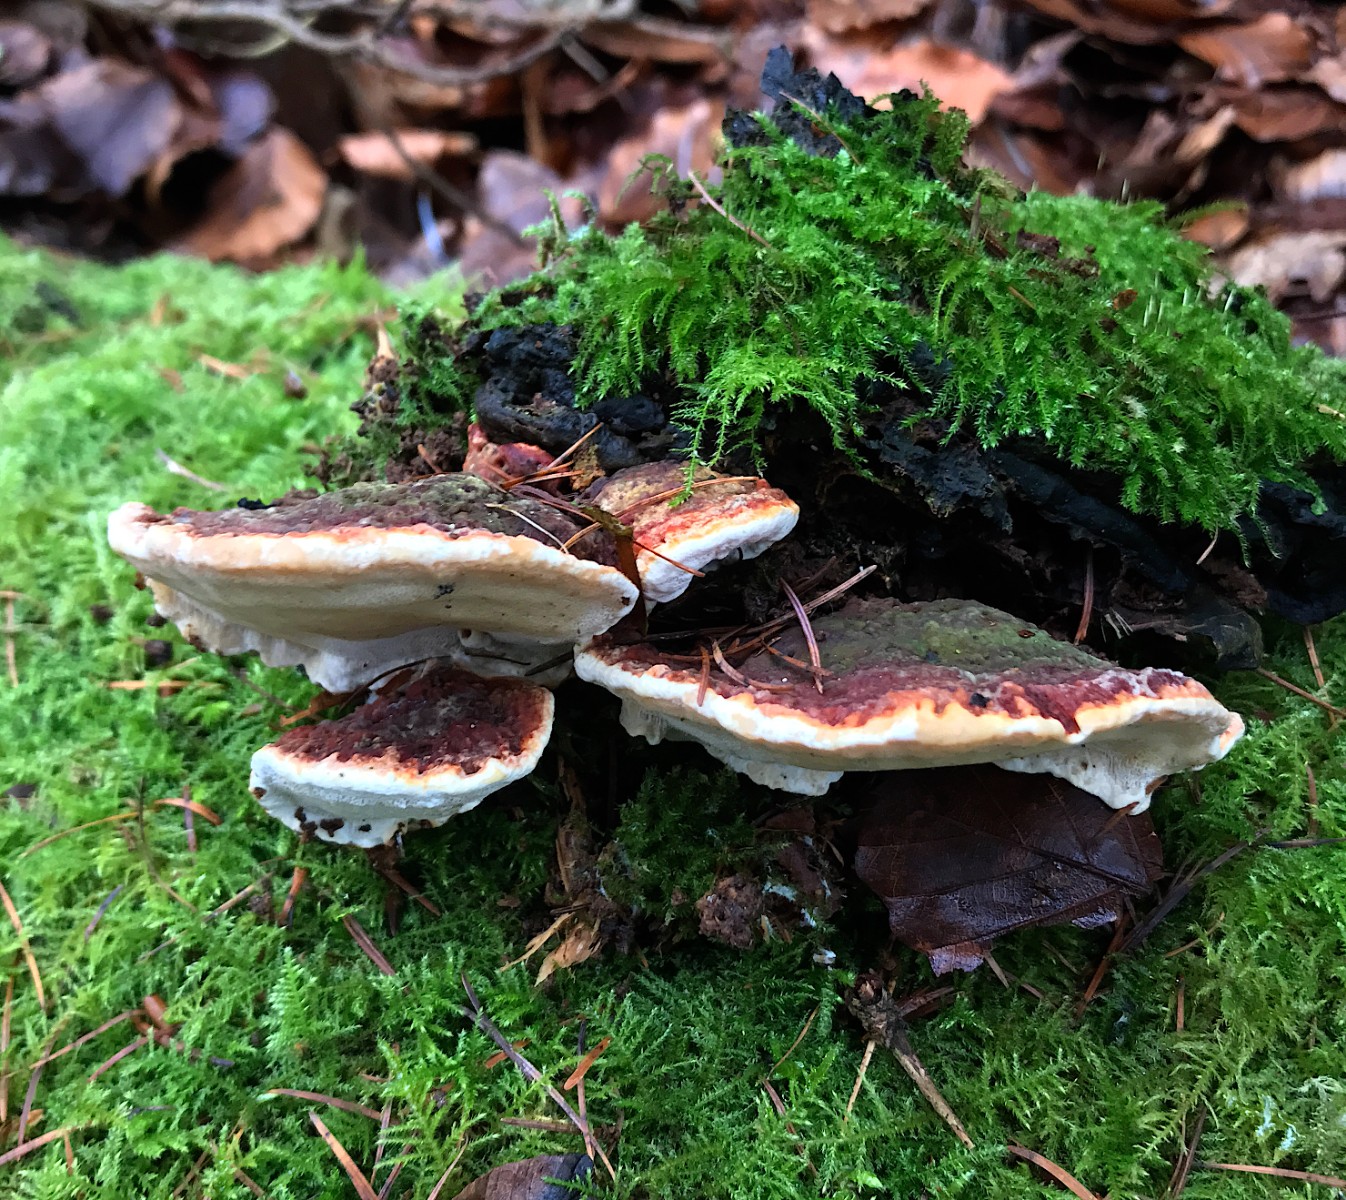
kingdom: Fungi
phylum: Basidiomycota
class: Agaricomycetes
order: Russulales
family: Bondarzewiaceae
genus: Heterobasidion
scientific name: Heterobasidion annosum
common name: almindelig rodfordærver
